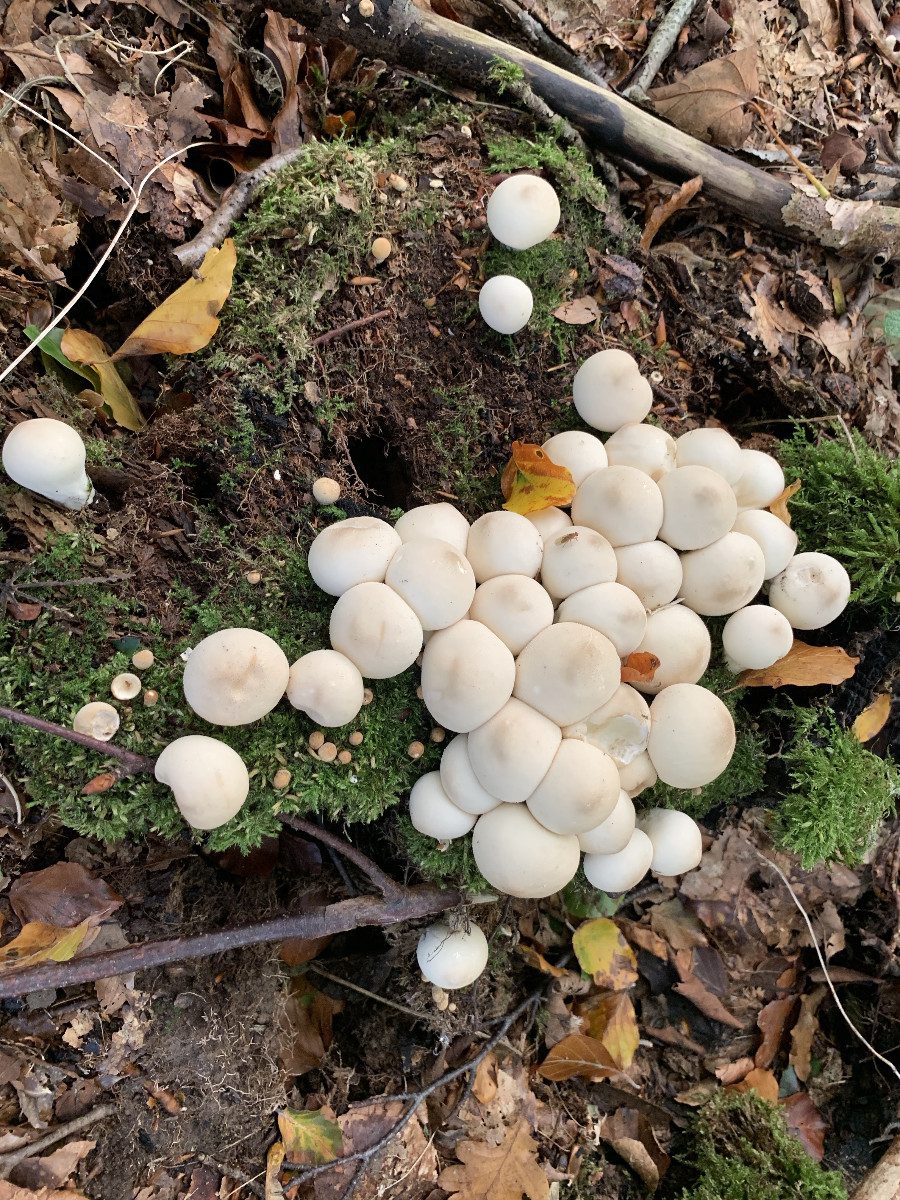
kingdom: Fungi
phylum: Basidiomycota
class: Agaricomycetes
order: Agaricales
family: Lycoperdaceae
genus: Apioperdon
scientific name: Apioperdon pyriforme
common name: pære-støvbold
